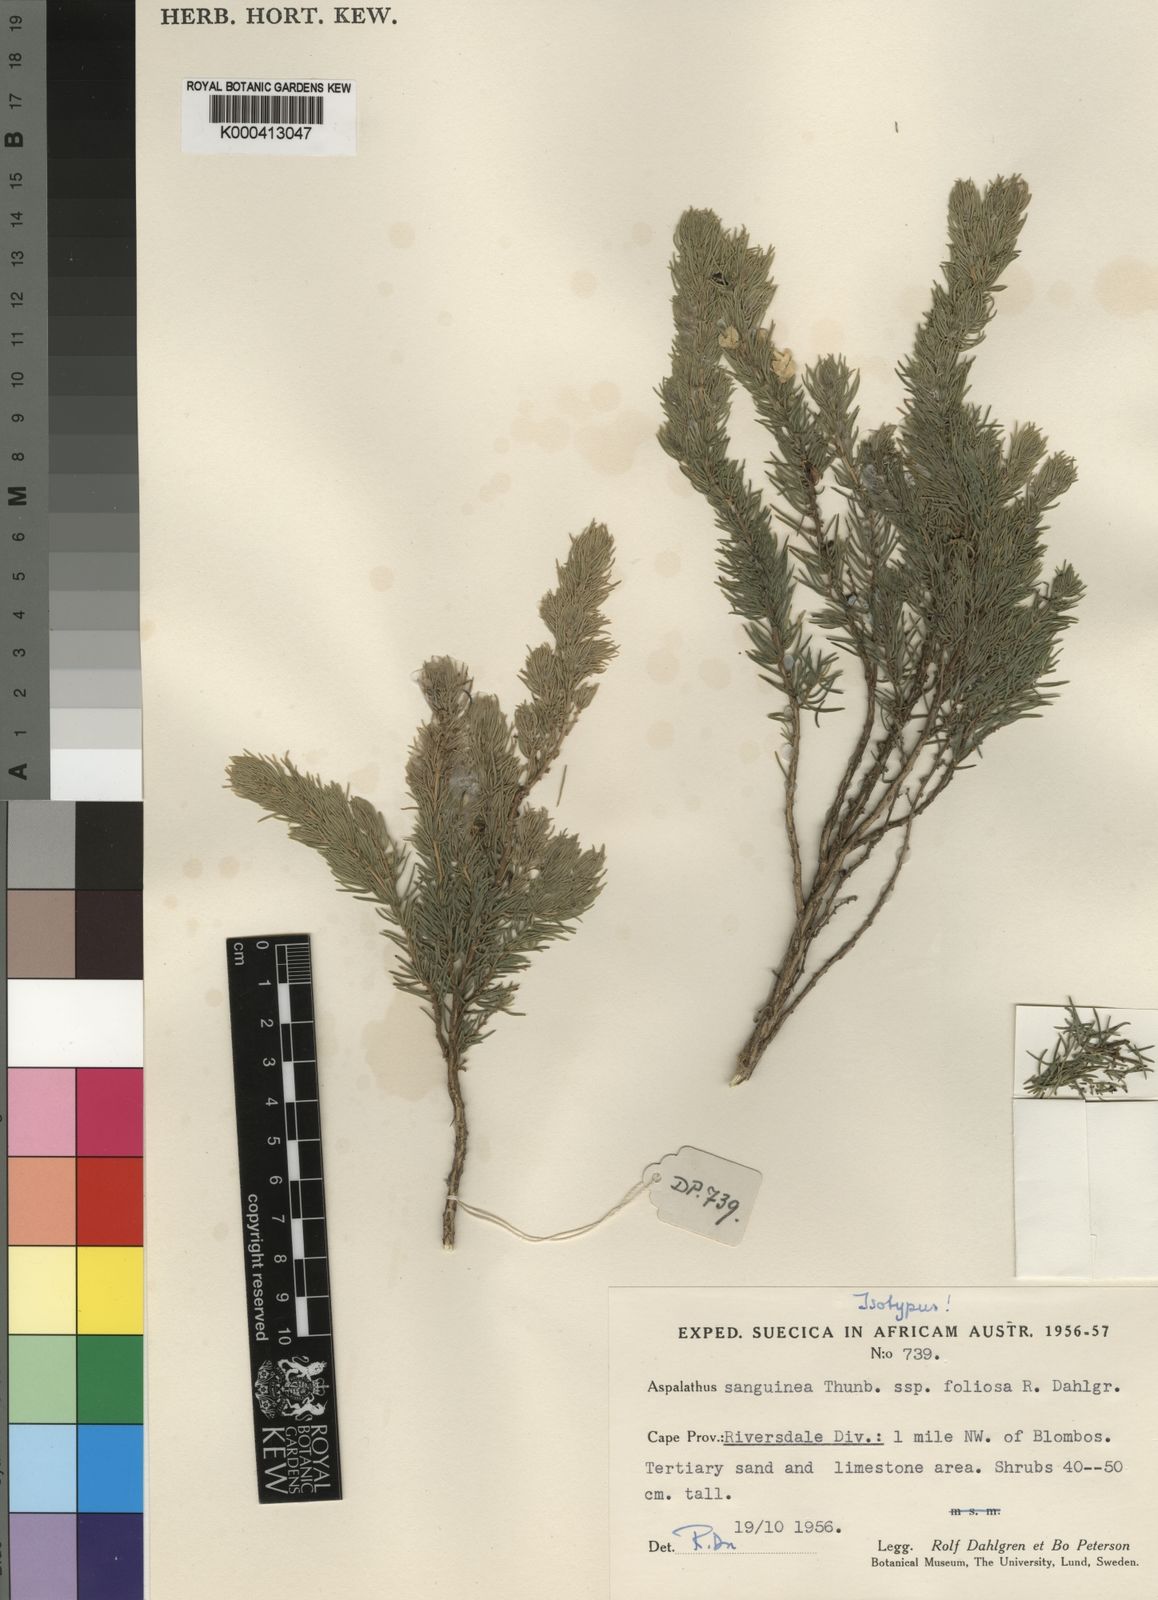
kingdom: Plantae
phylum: Tracheophyta
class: Magnoliopsida
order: Fabales
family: Fabaceae
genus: Aspalathus
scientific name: Aspalathus sanguinea
